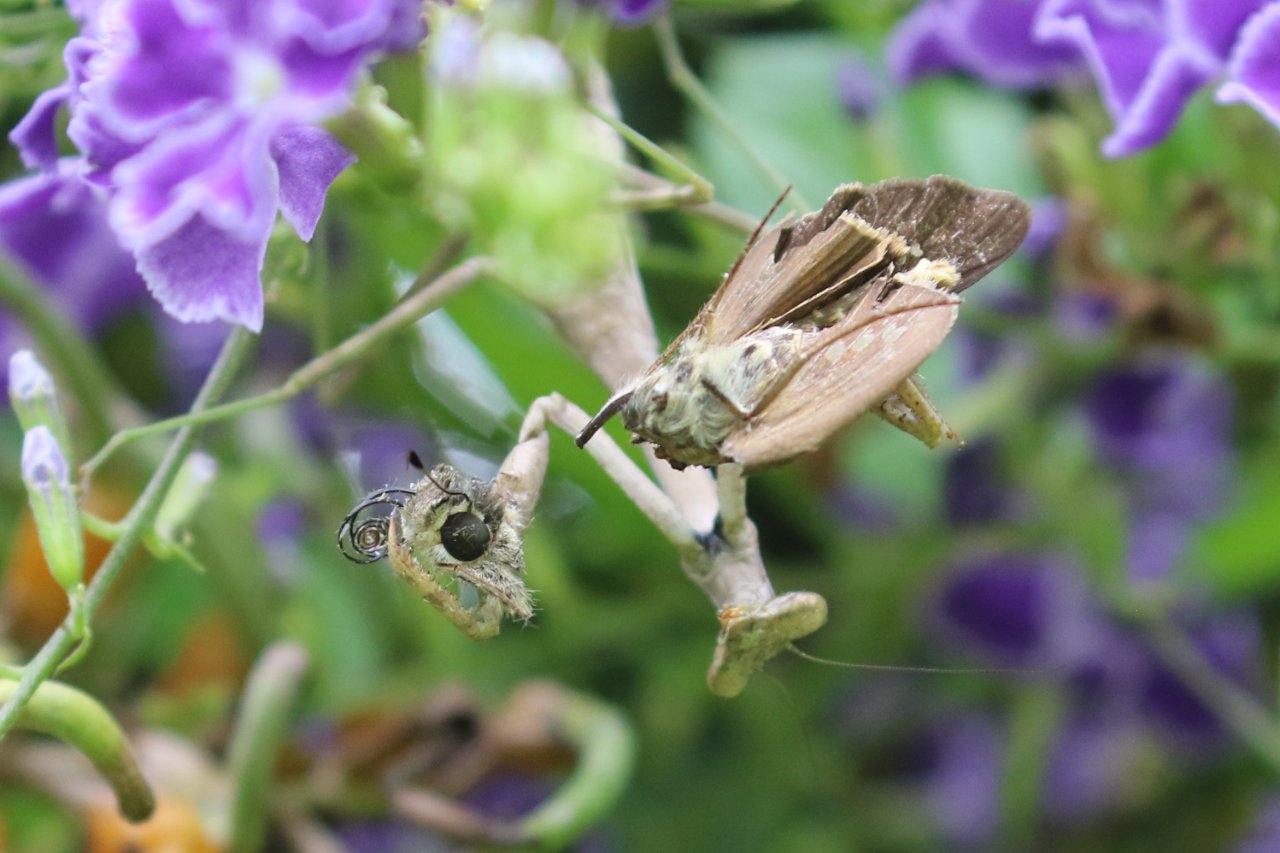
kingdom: Animalia
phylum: Arthropoda
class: Insecta
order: Lepidoptera
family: Hesperiidae
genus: Calpodes
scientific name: Calpodes ethlius
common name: Brazilian Skipper
